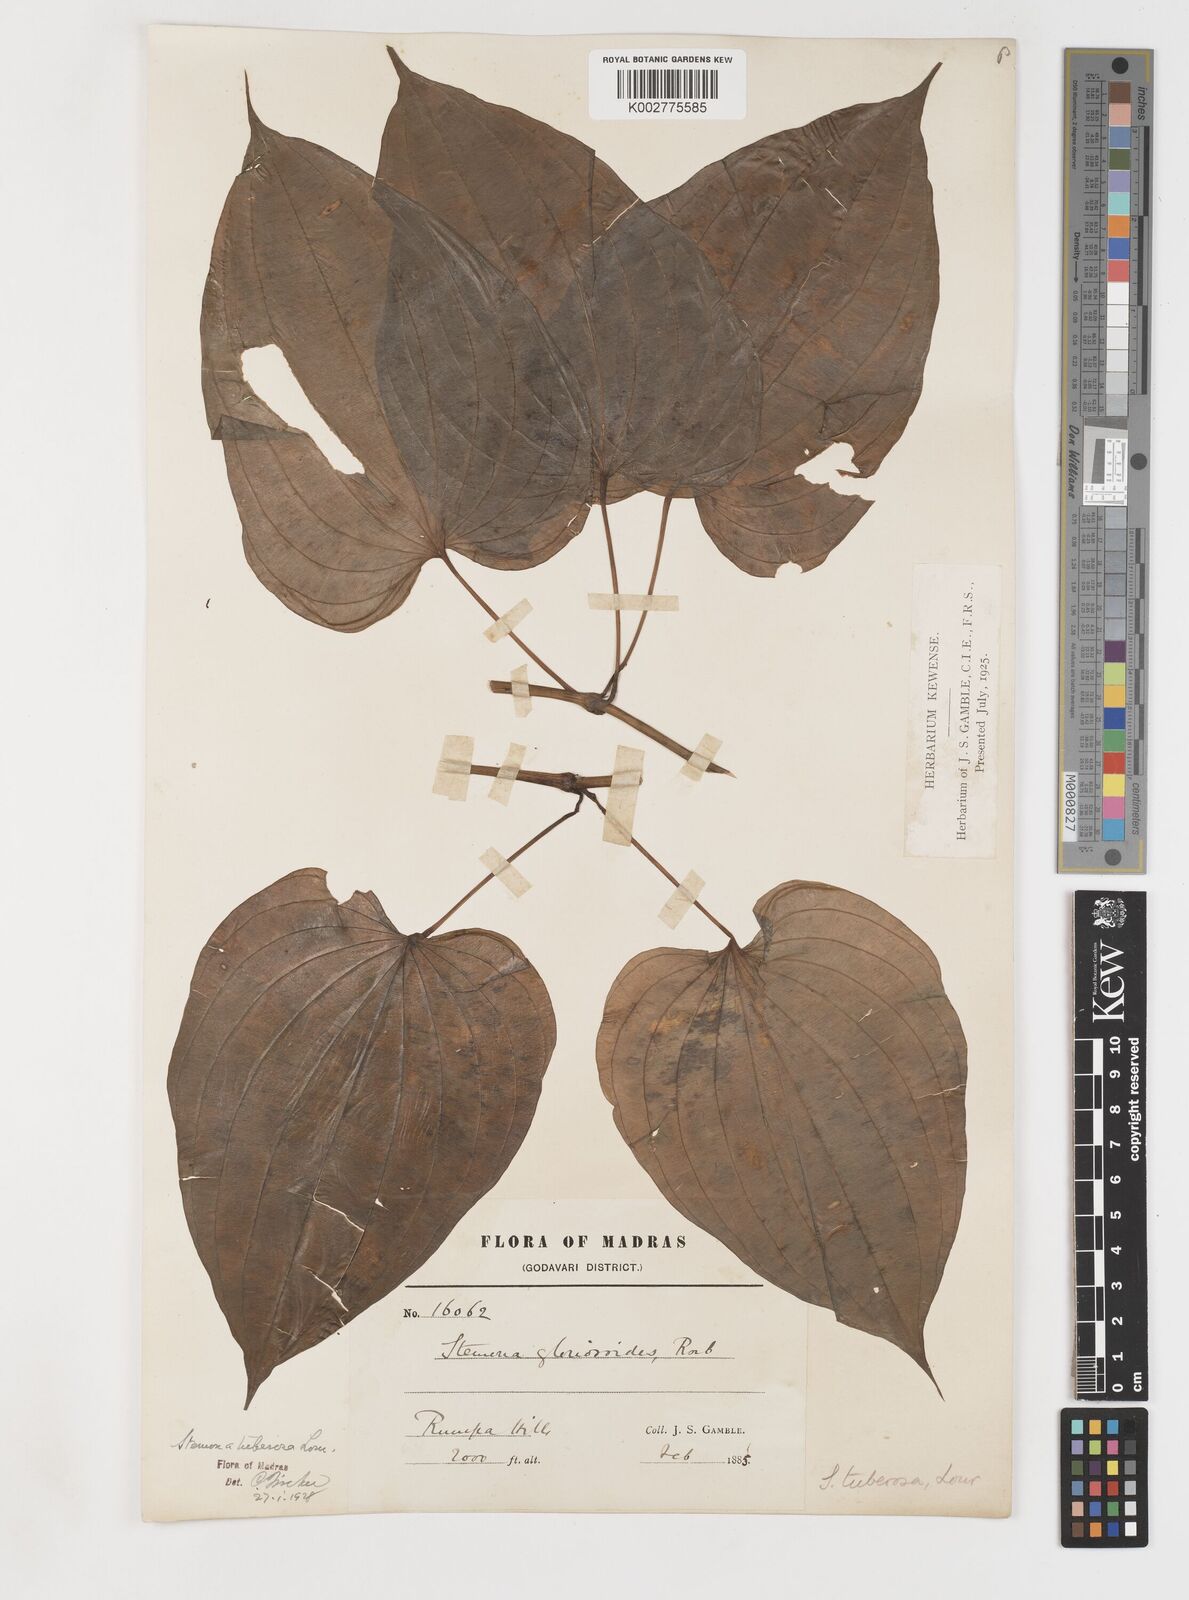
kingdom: Plantae
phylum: Tracheophyta
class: Liliopsida
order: Pandanales
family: Stemonaceae
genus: Stemona
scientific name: Stemona tuberosa
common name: Stemona
